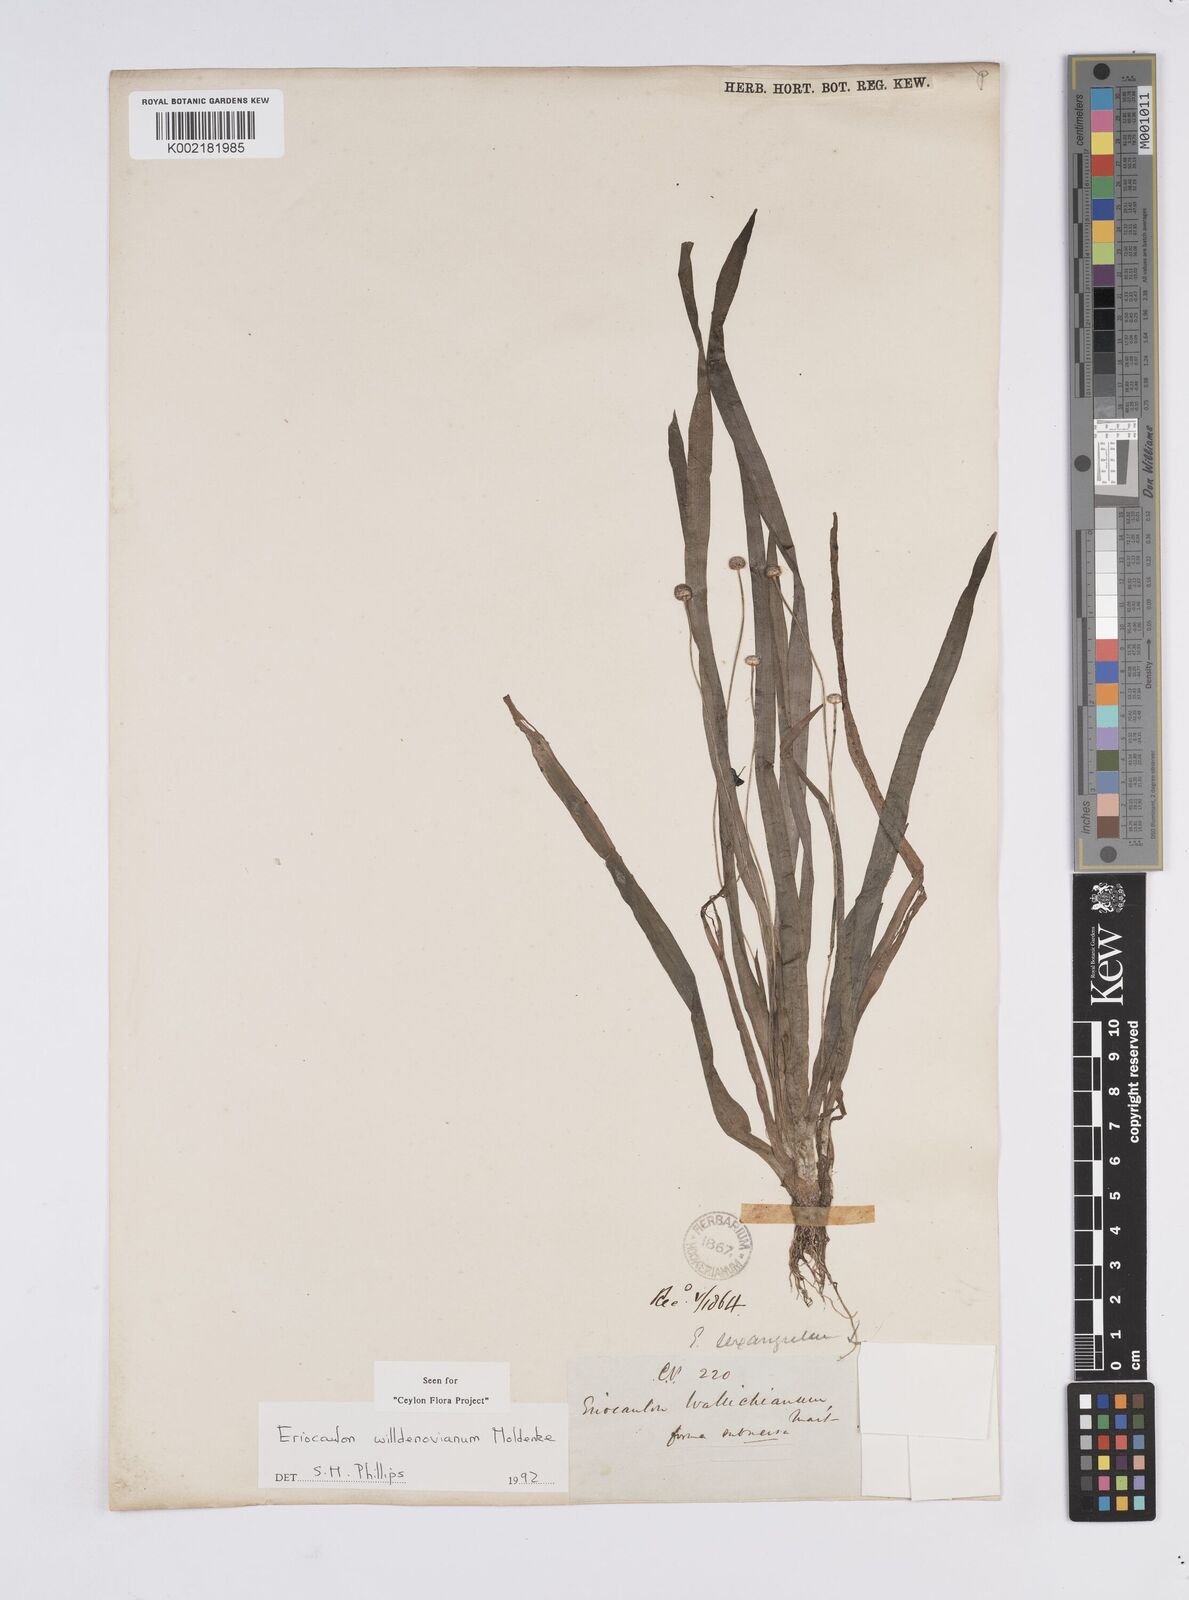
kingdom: Plantae
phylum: Tracheophyta
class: Liliopsida
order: Poales
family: Eriocaulaceae
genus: Eriocaulon
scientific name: Eriocaulon willdenovianum
